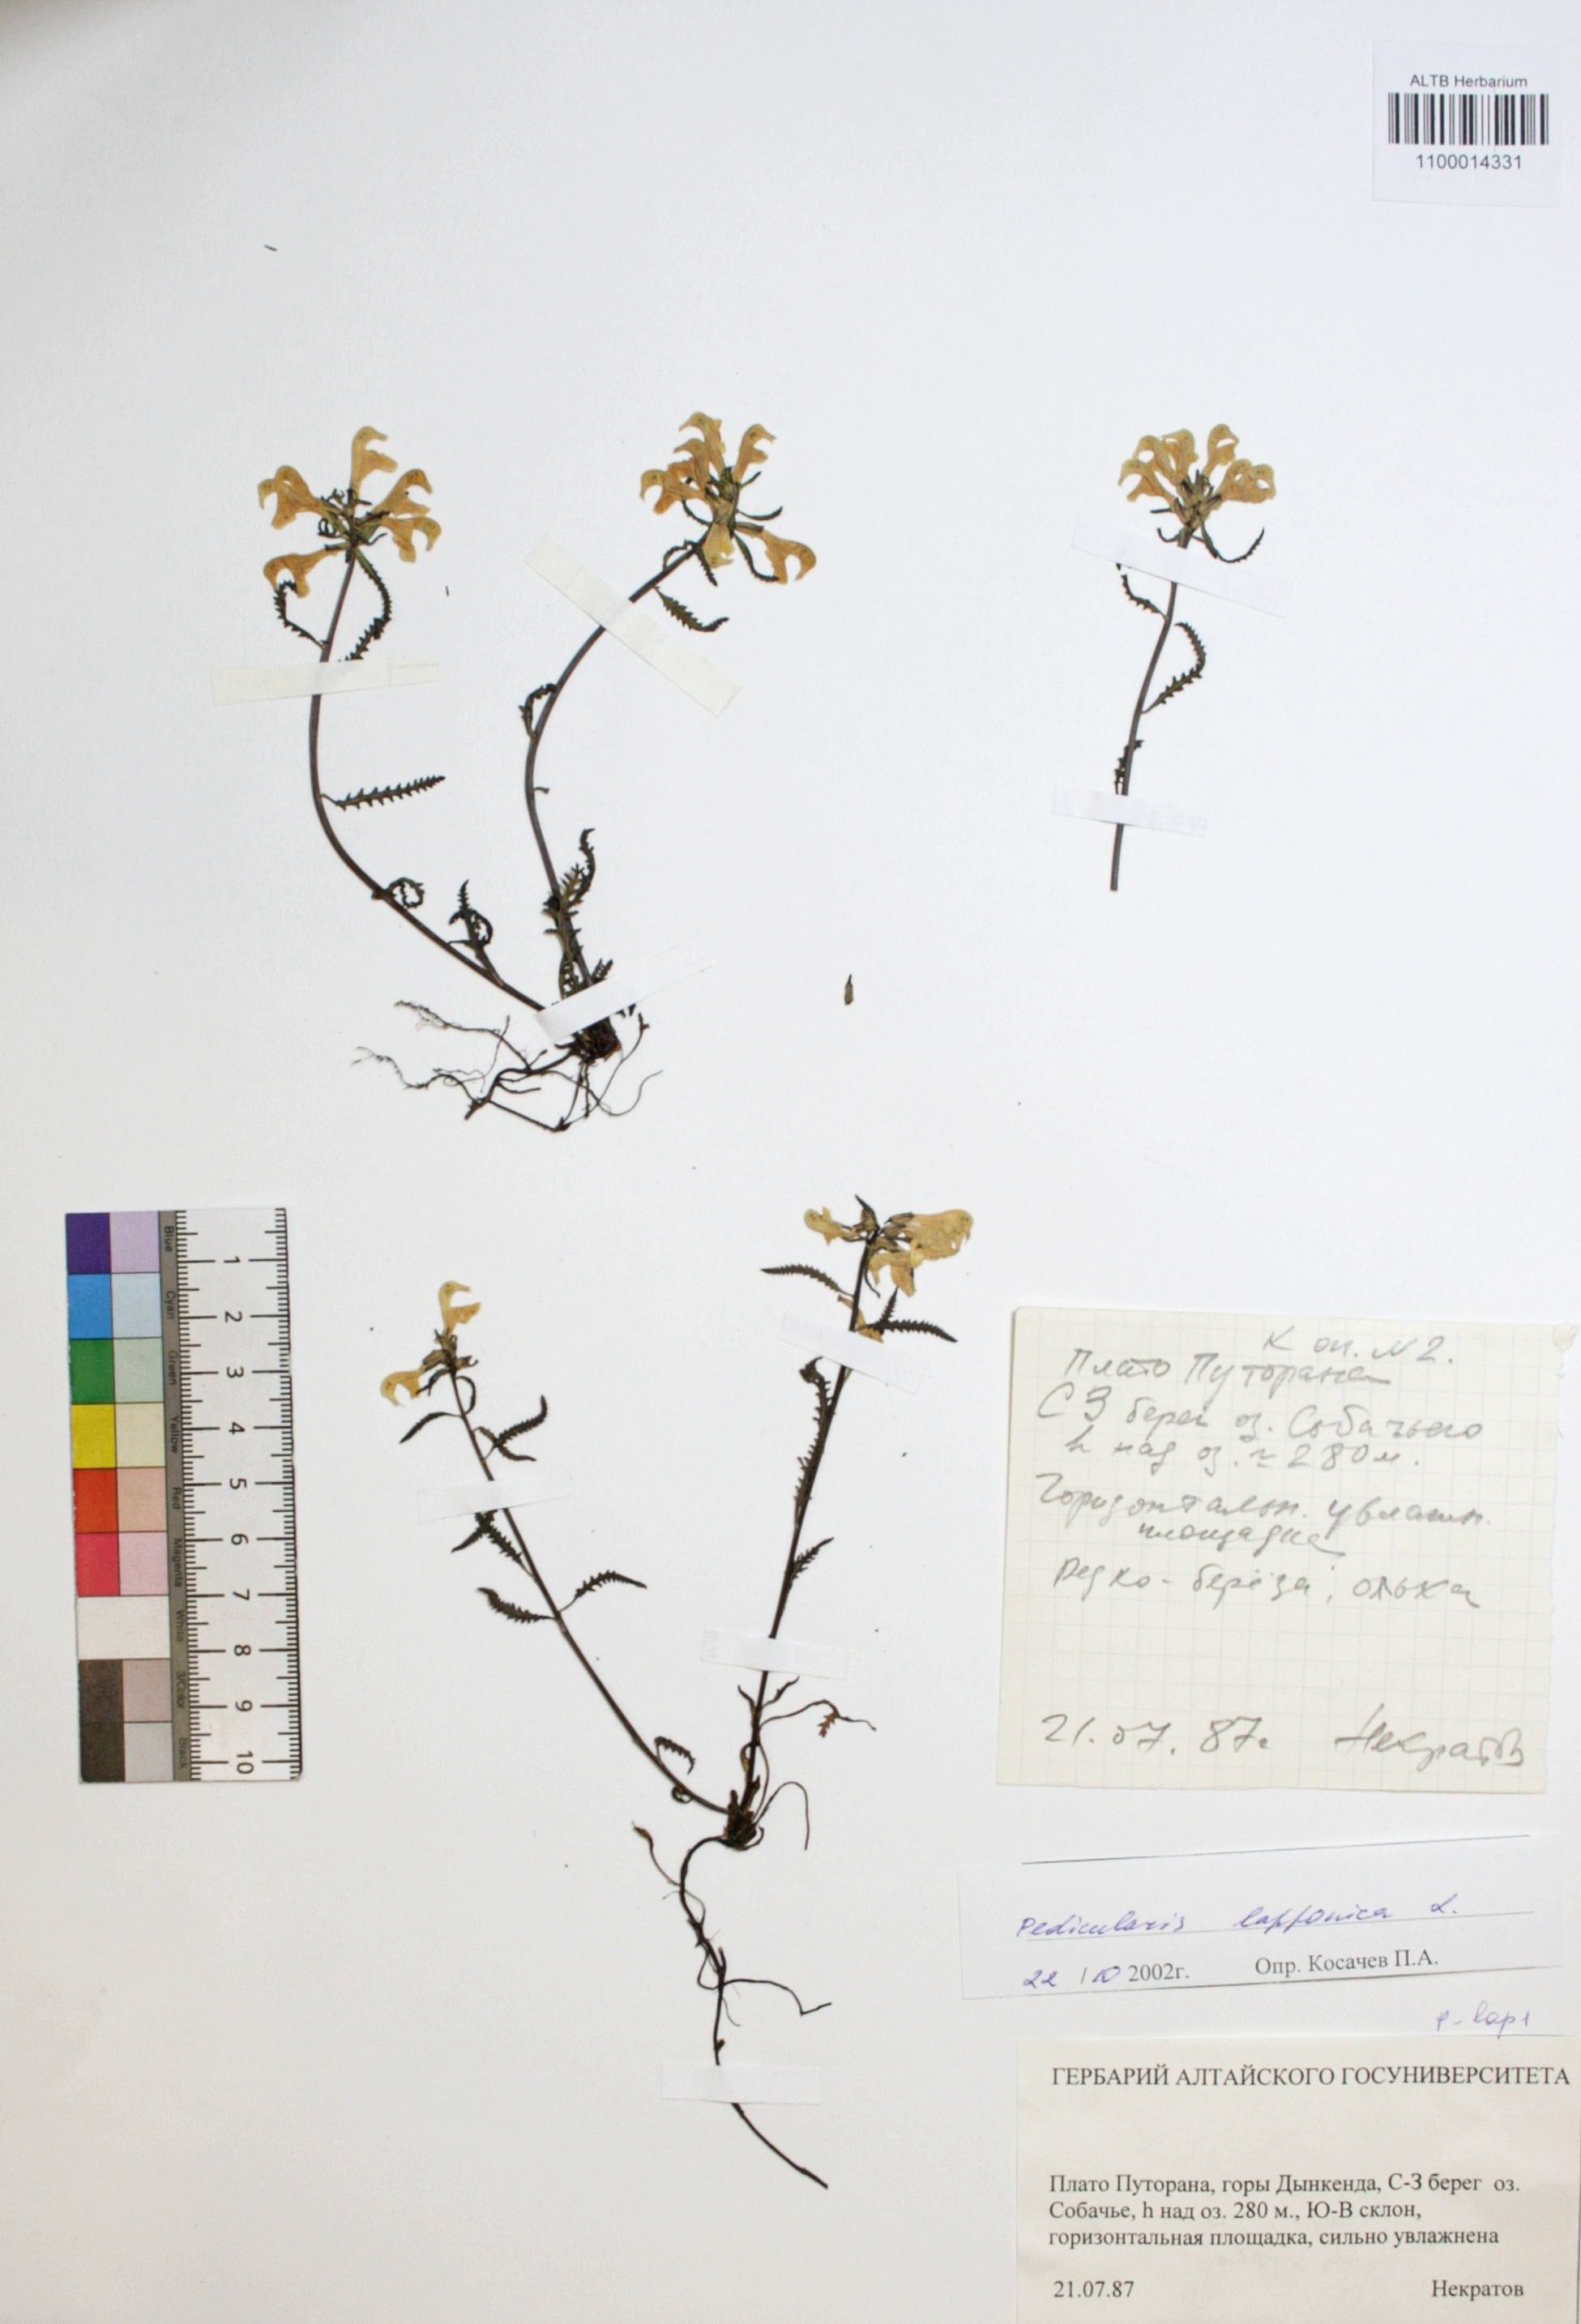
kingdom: Plantae
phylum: Tracheophyta
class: Magnoliopsida
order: Lamiales
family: Orobanchaceae
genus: Pedicularis
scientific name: Pedicularis lapponica
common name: Lapland lousewort
